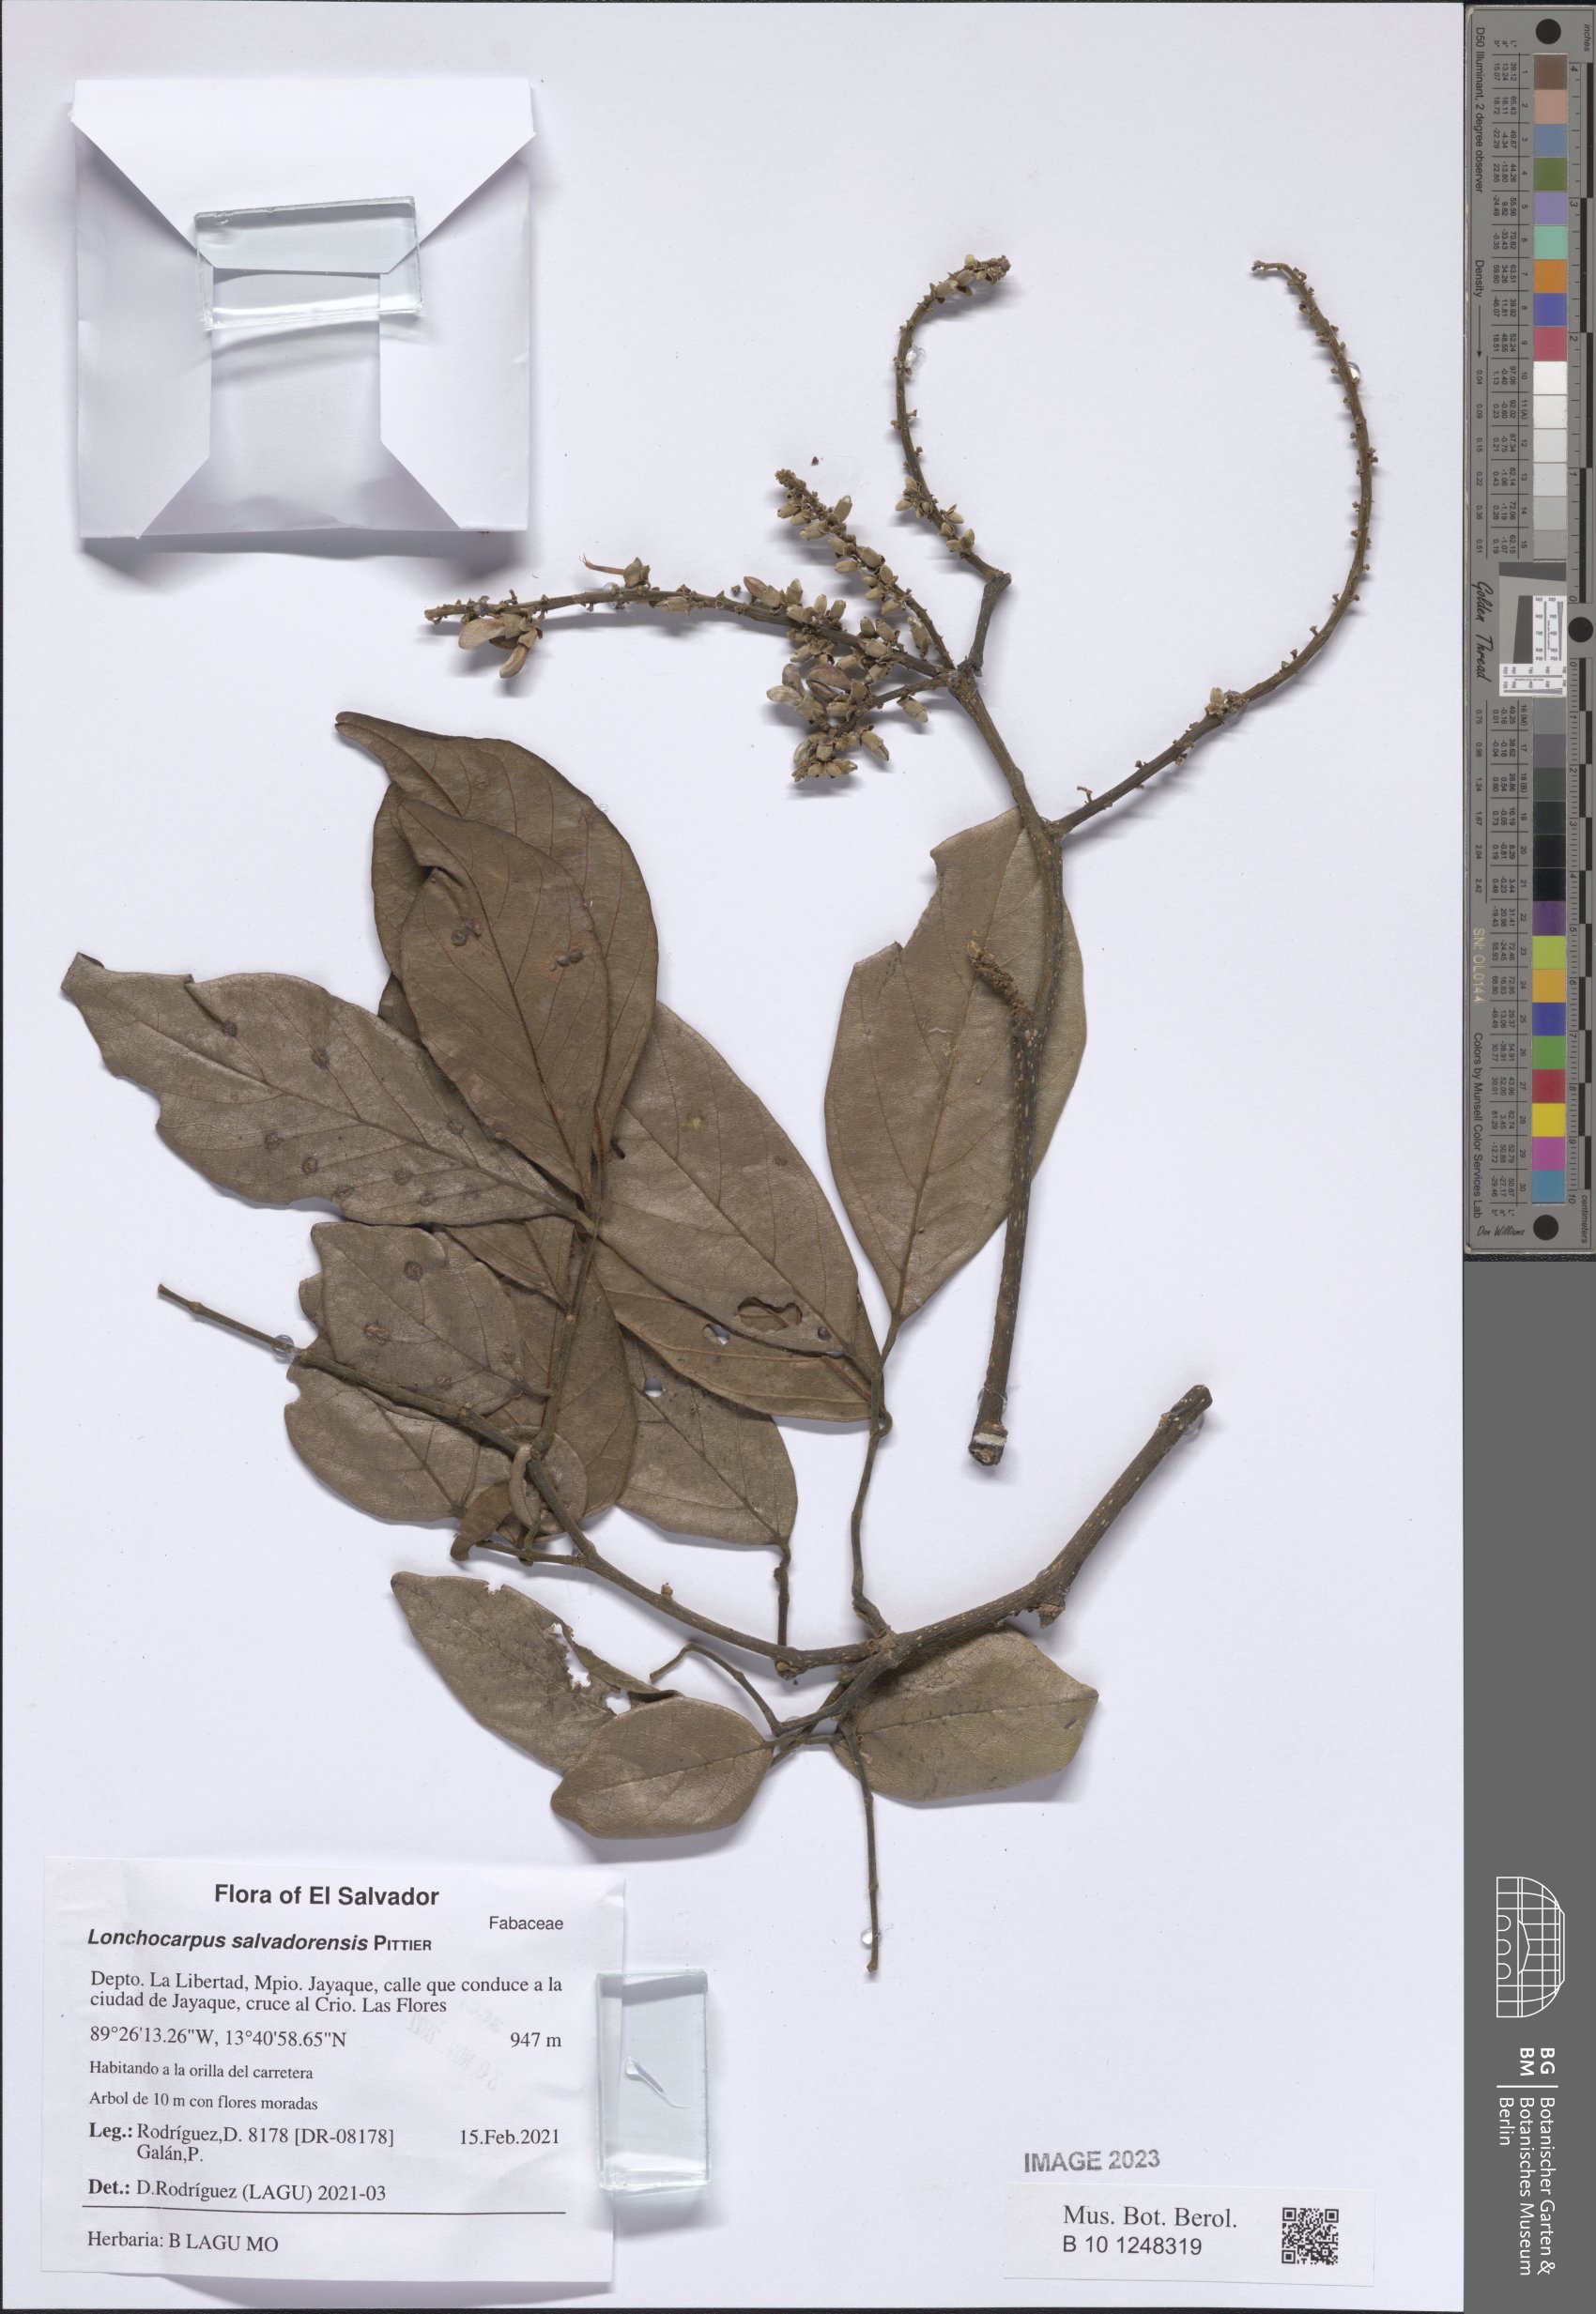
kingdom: Plantae
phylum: Tracheophyta
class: Magnoliopsida
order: Fabales
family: Fabaceae
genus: Lonchocarpus
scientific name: Lonchocarpus salvadorensis
